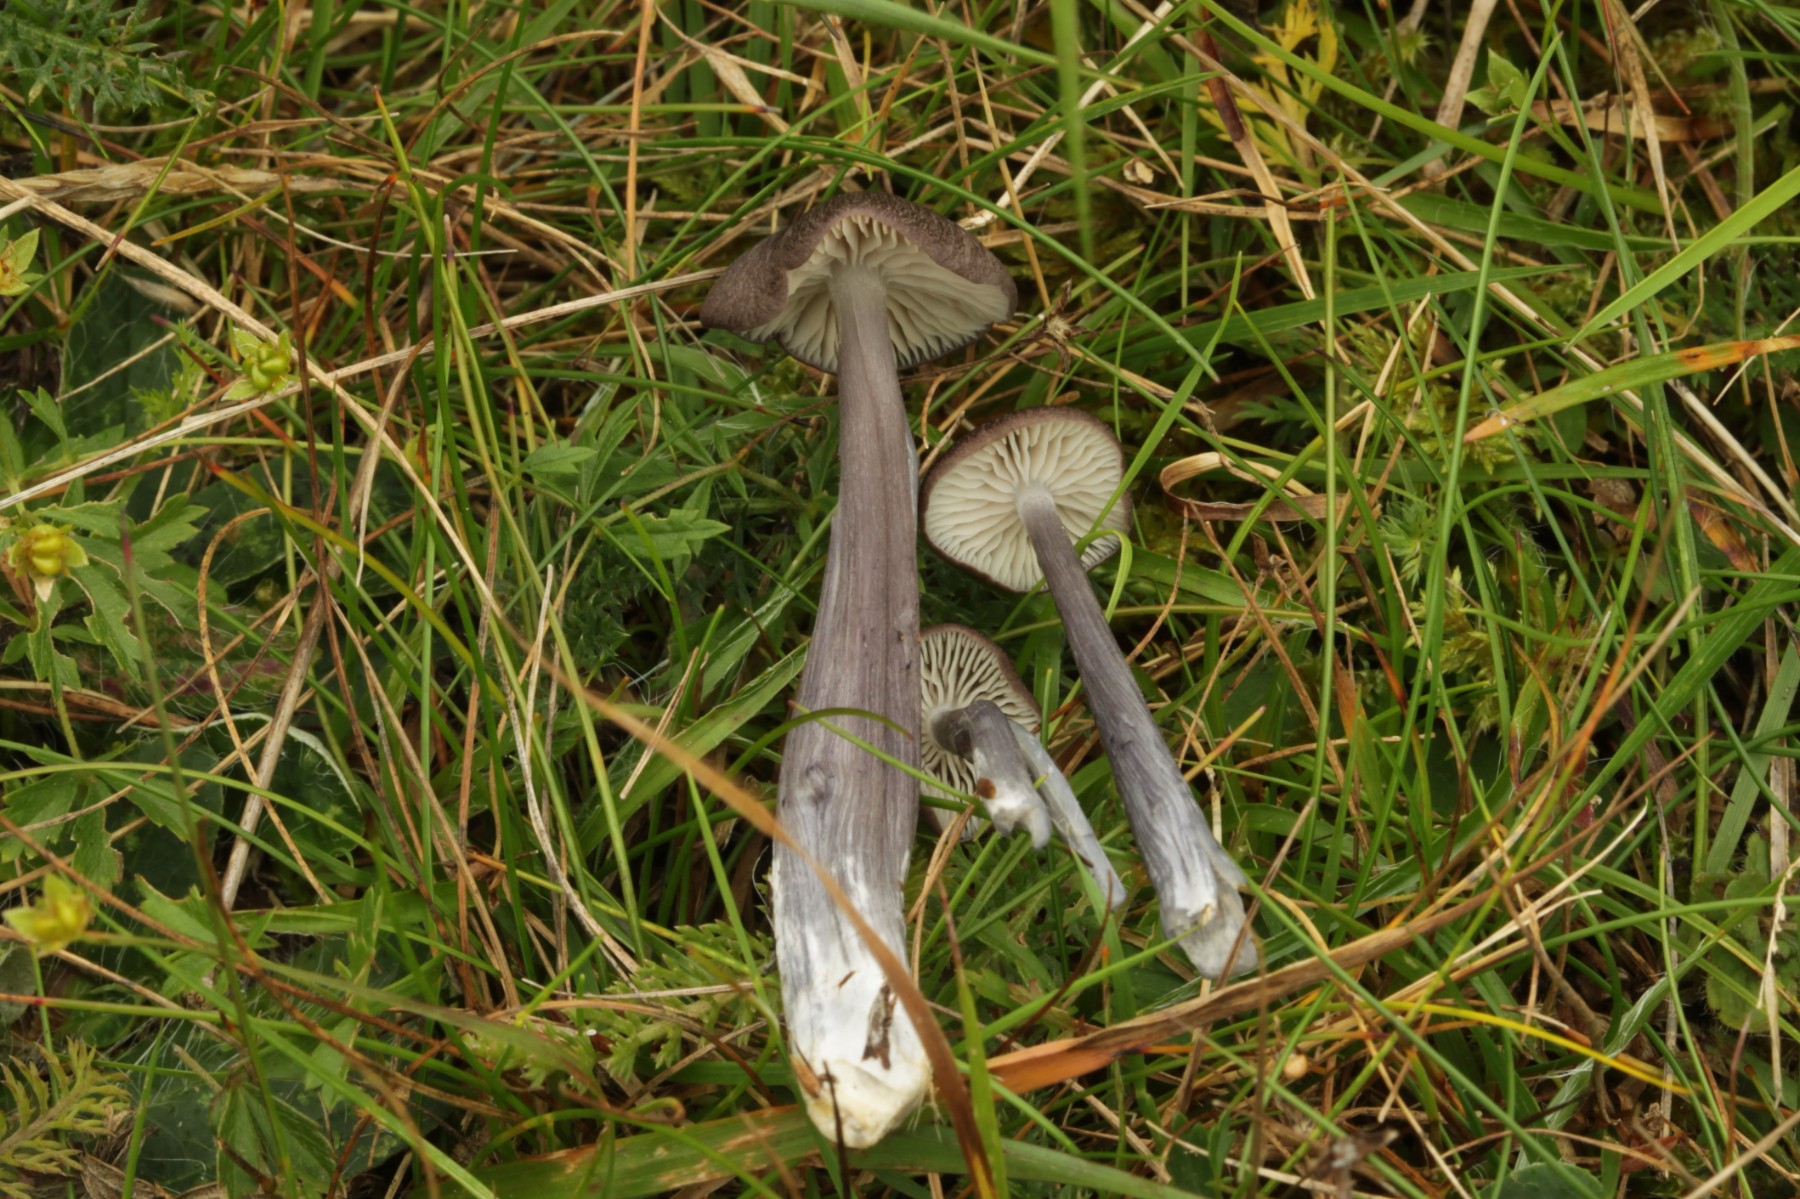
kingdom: Fungi
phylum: Basidiomycota
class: Agaricomycetes
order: Agaricales
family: Entolomataceae
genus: Entoloma
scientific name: Entoloma viiduense
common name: purpurbrun rødblad
